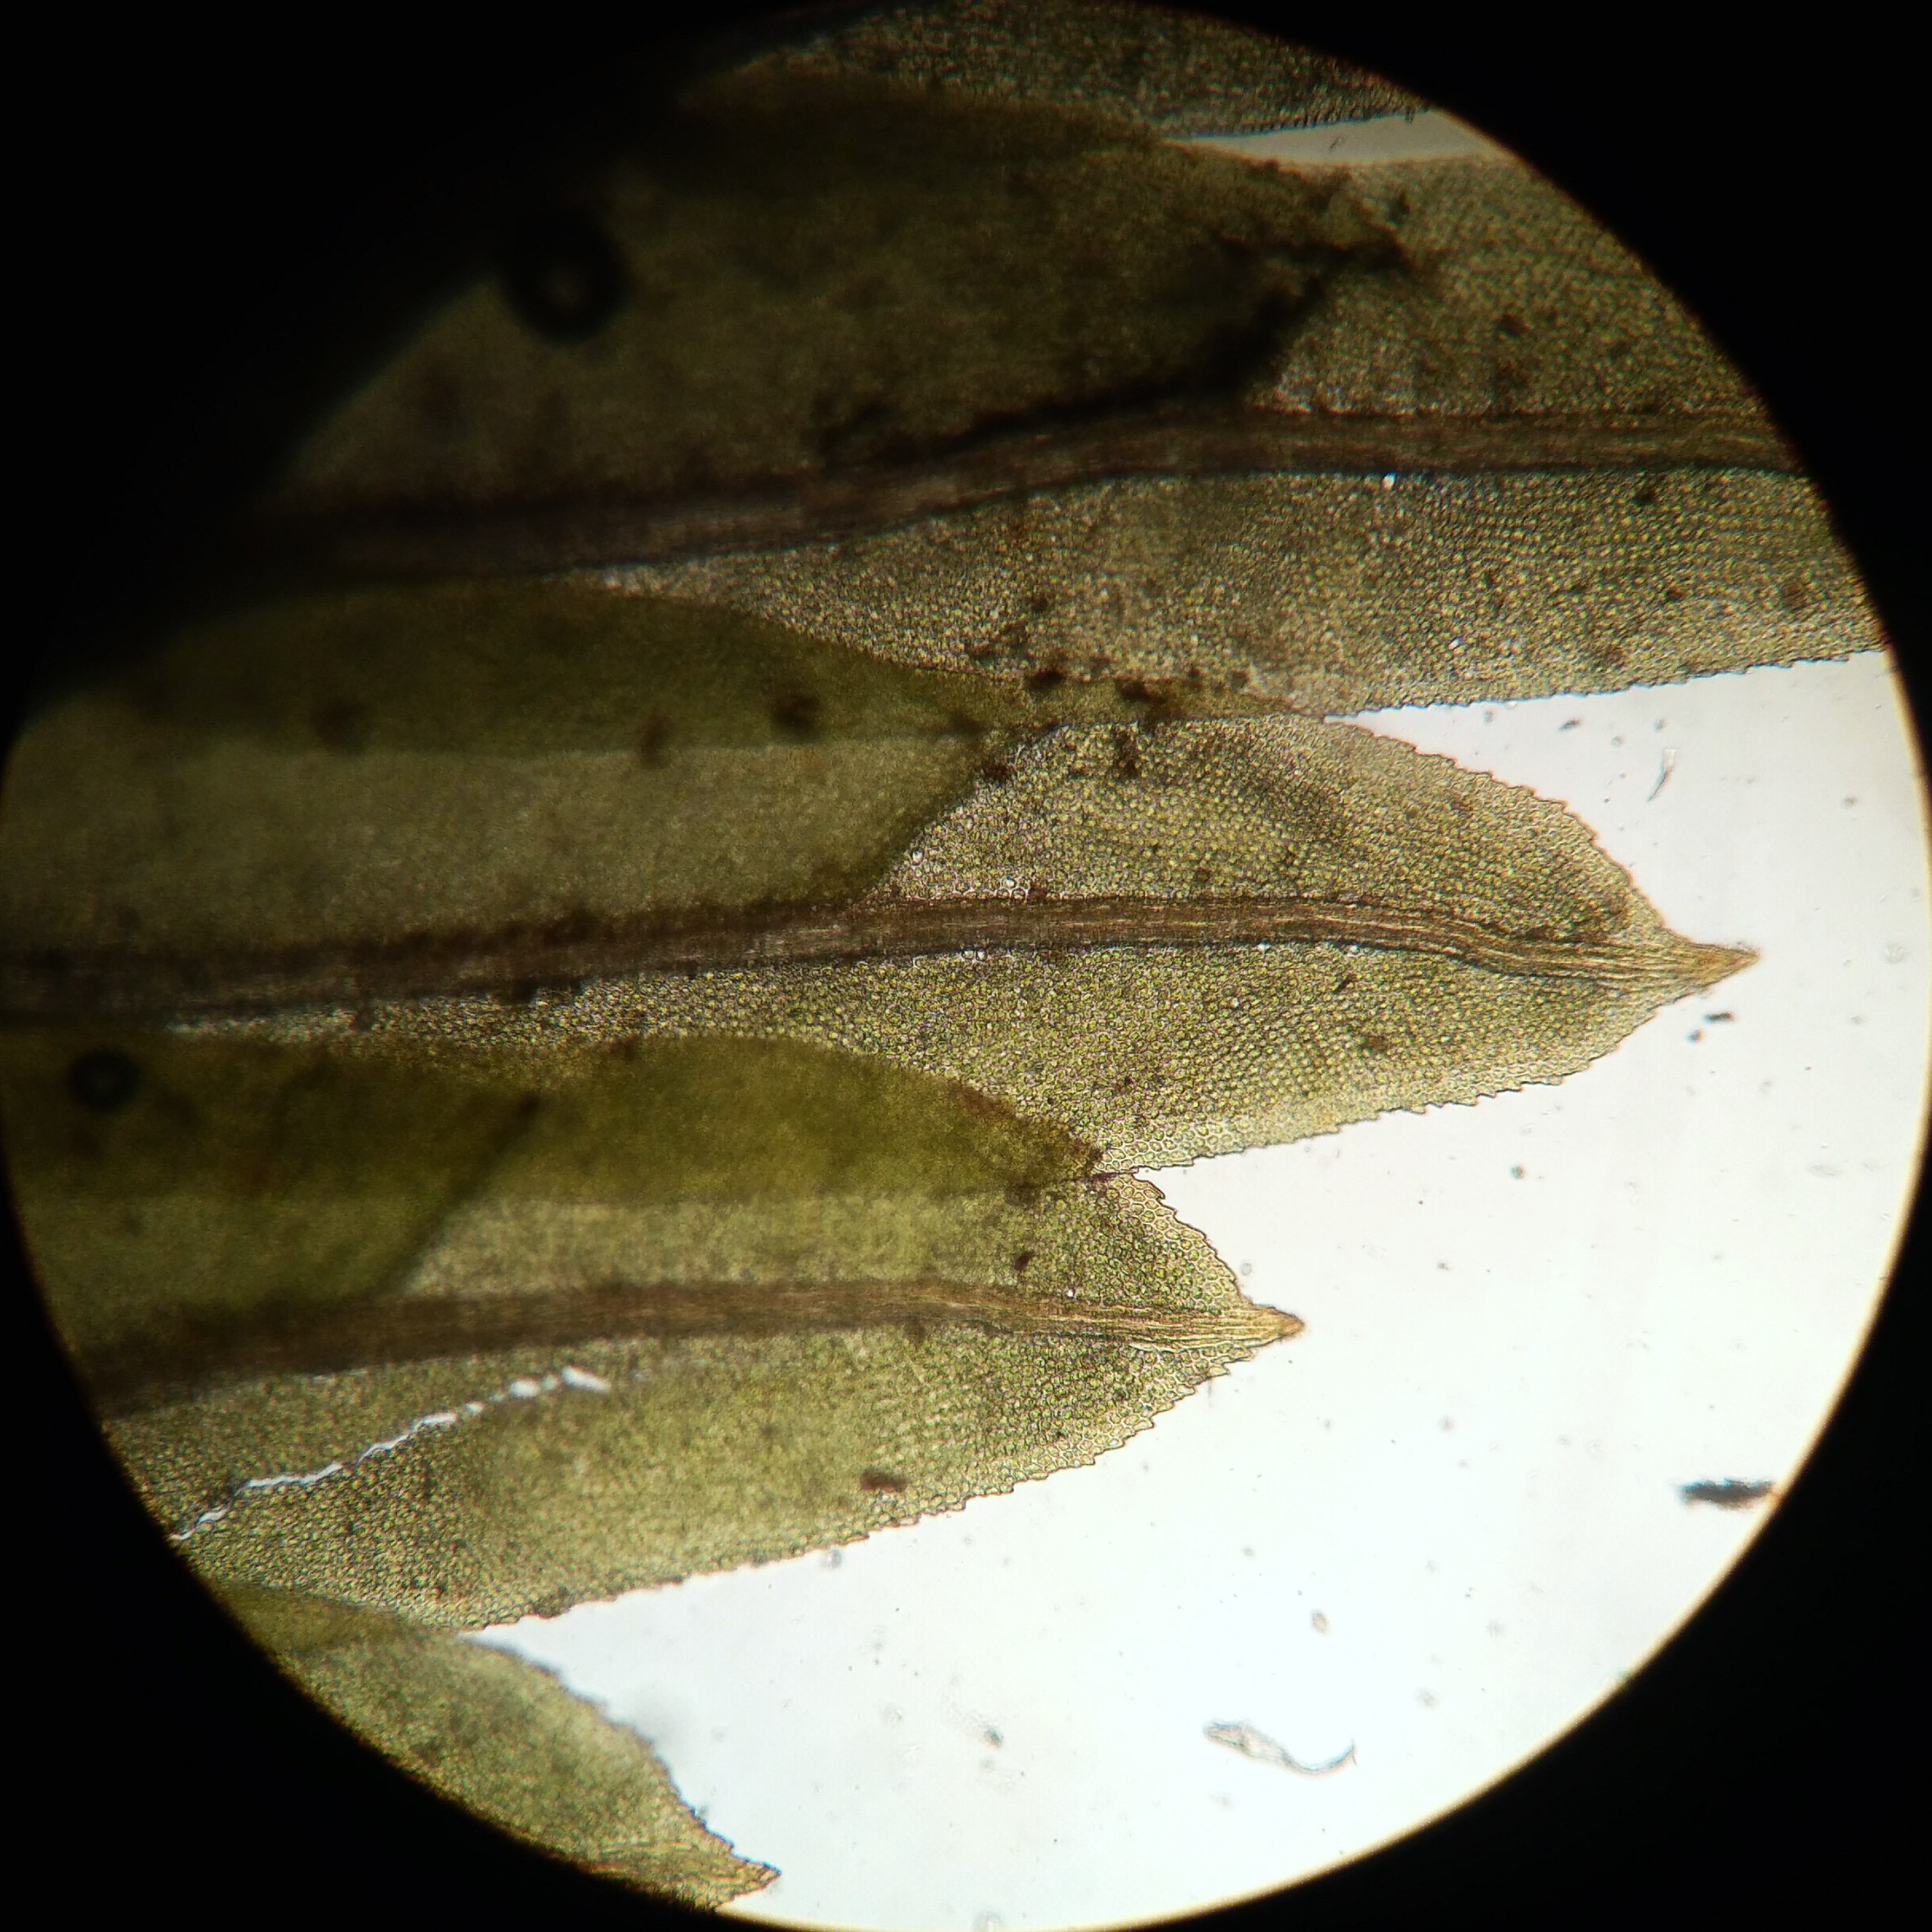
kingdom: Plantae
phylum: Bryophyta
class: Bryopsida
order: Dicranales
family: Fissidentaceae
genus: Fissidens
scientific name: Fissidens dubius
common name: Tør rademos
